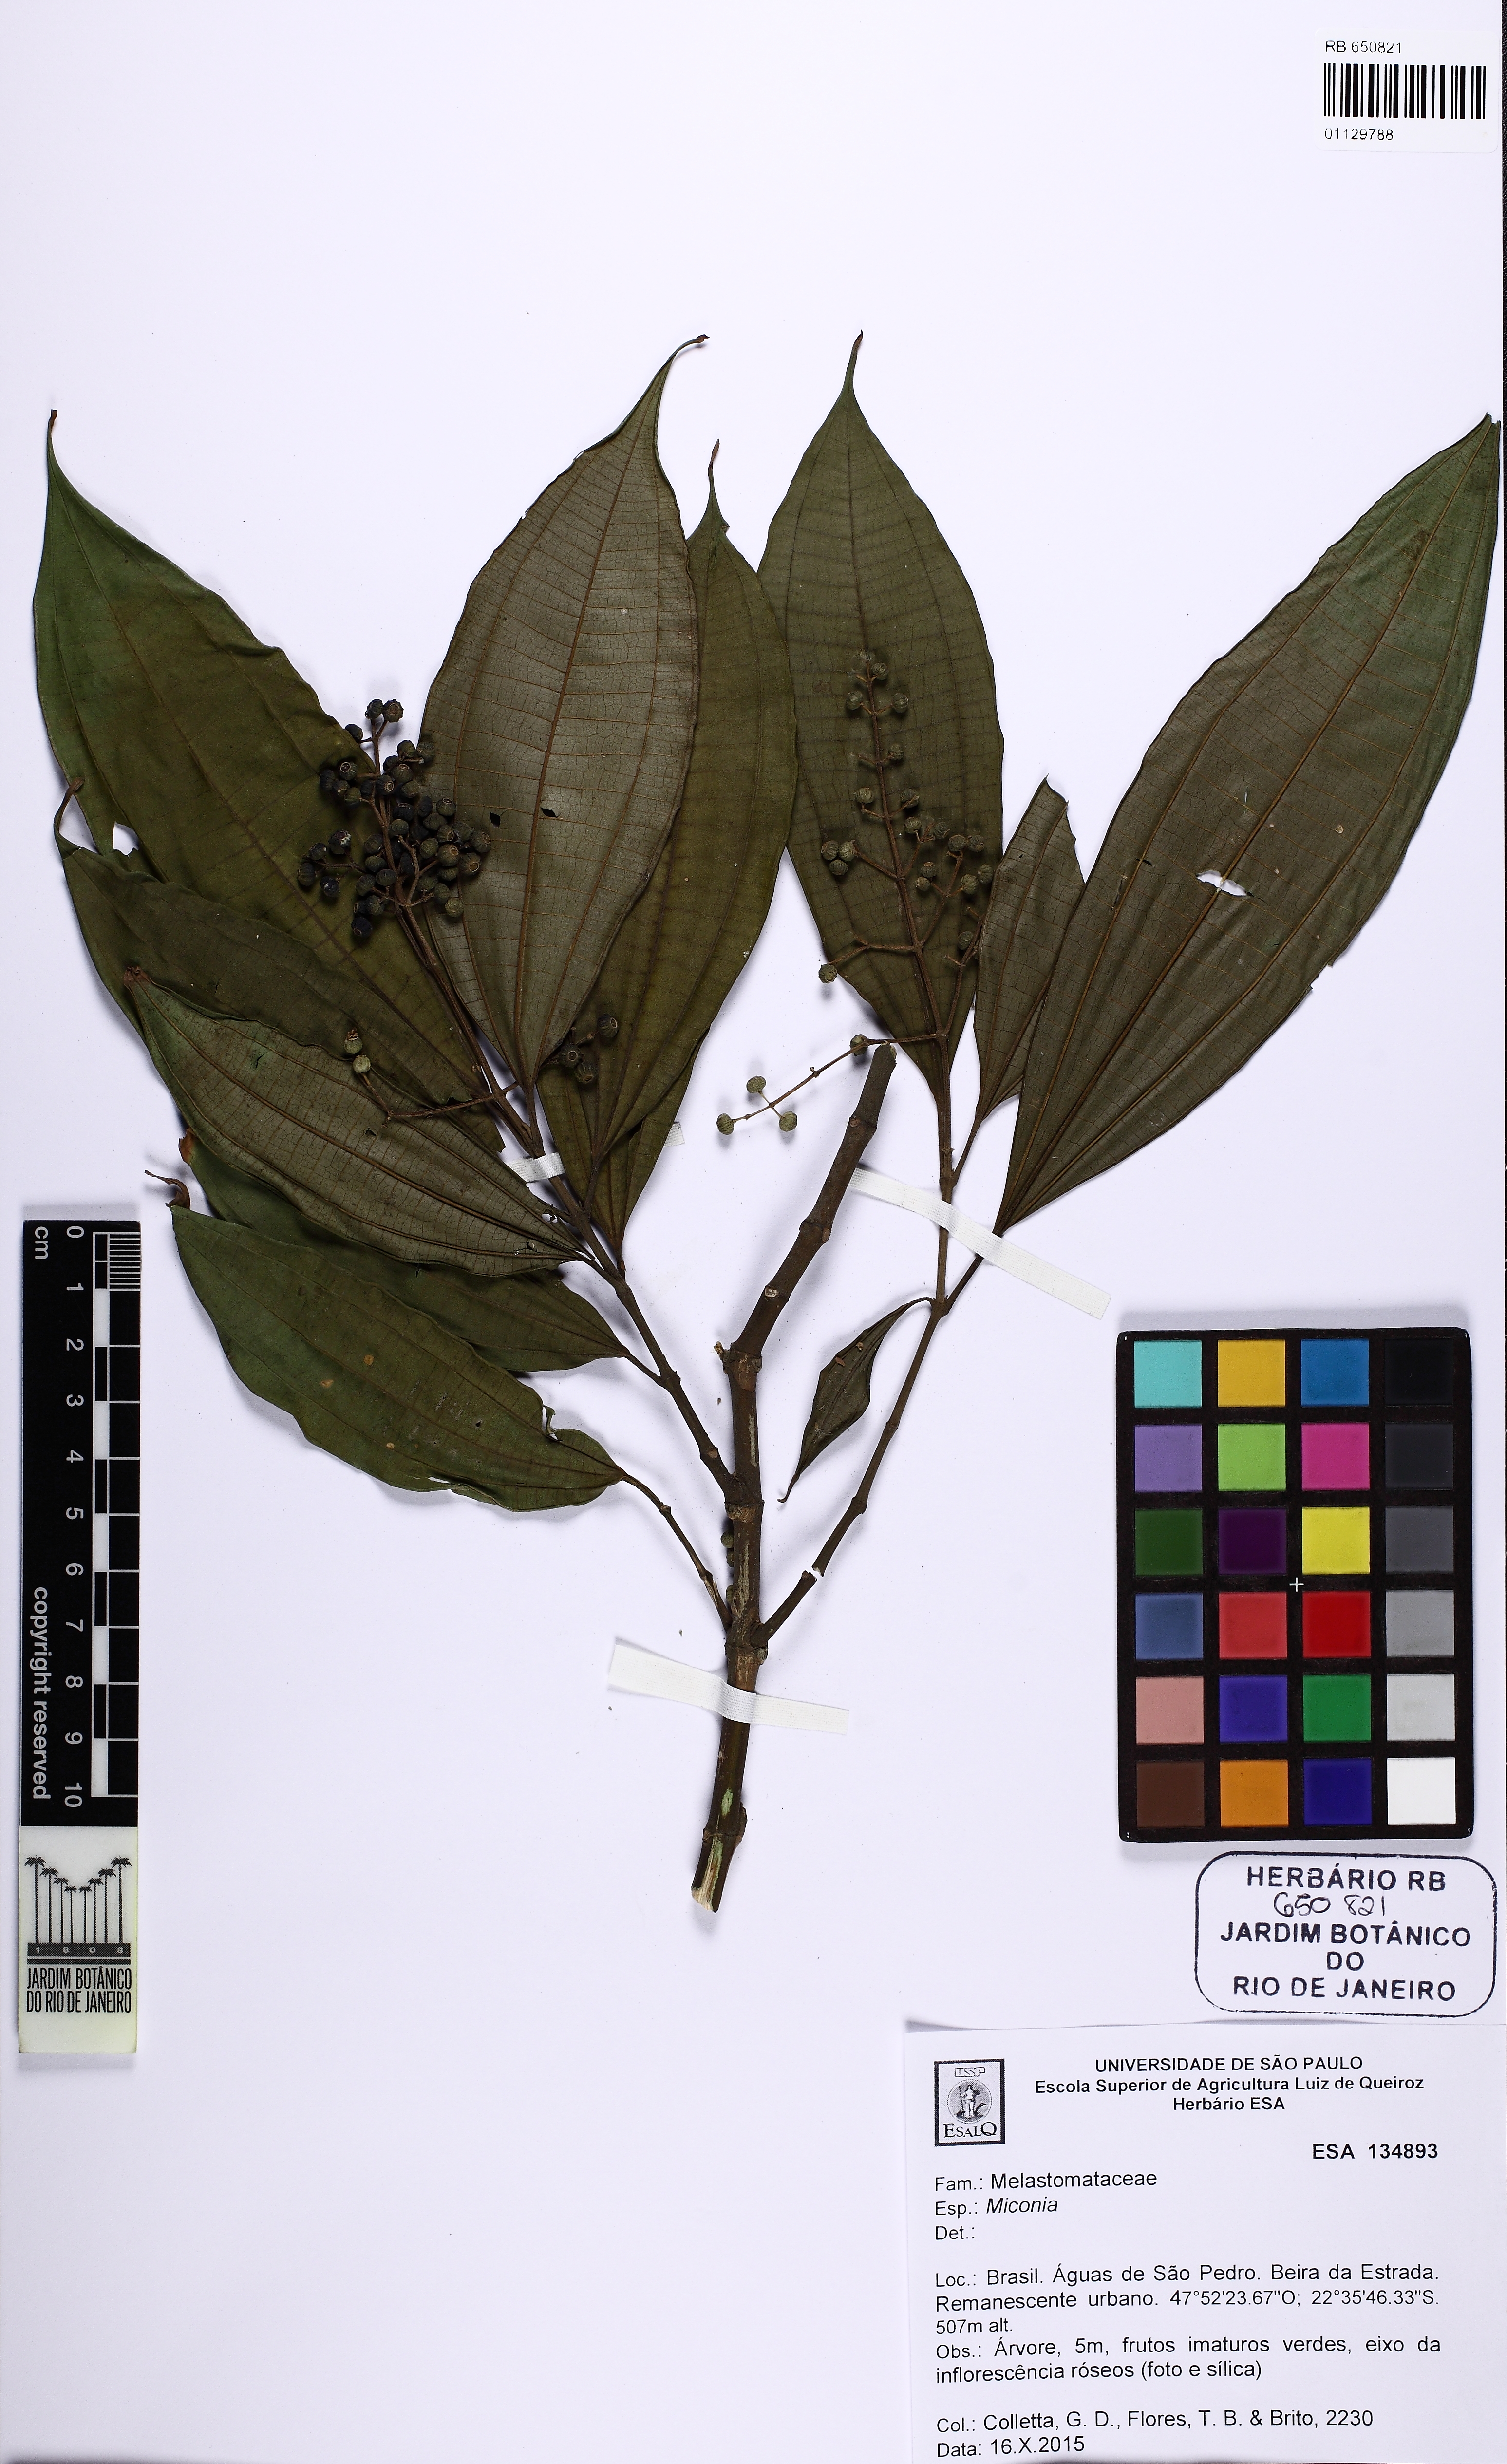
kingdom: Plantae
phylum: Tracheophyta
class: Magnoliopsida
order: Myrtales
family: Melastomataceae
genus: Miconia
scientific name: Miconia
